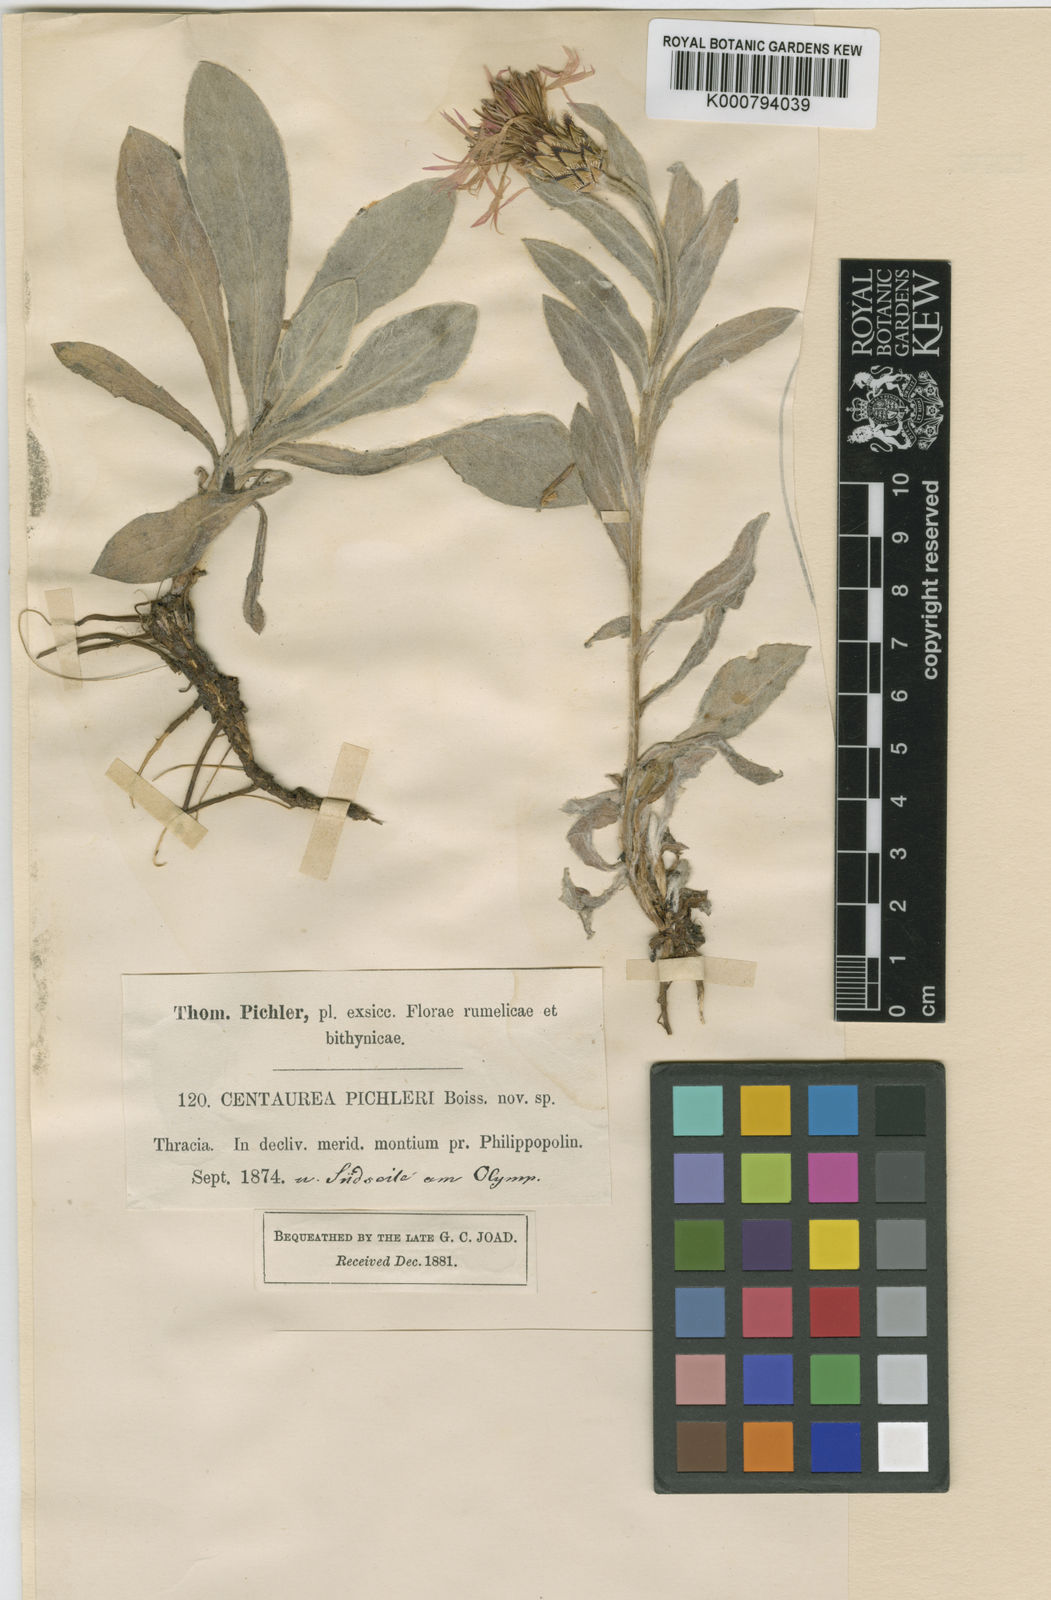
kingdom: Plantae
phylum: Tracheophyta
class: Magnoliopsida
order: Asterales
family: Asteraceae
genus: Centaurea
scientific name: Centaurea napulifera
